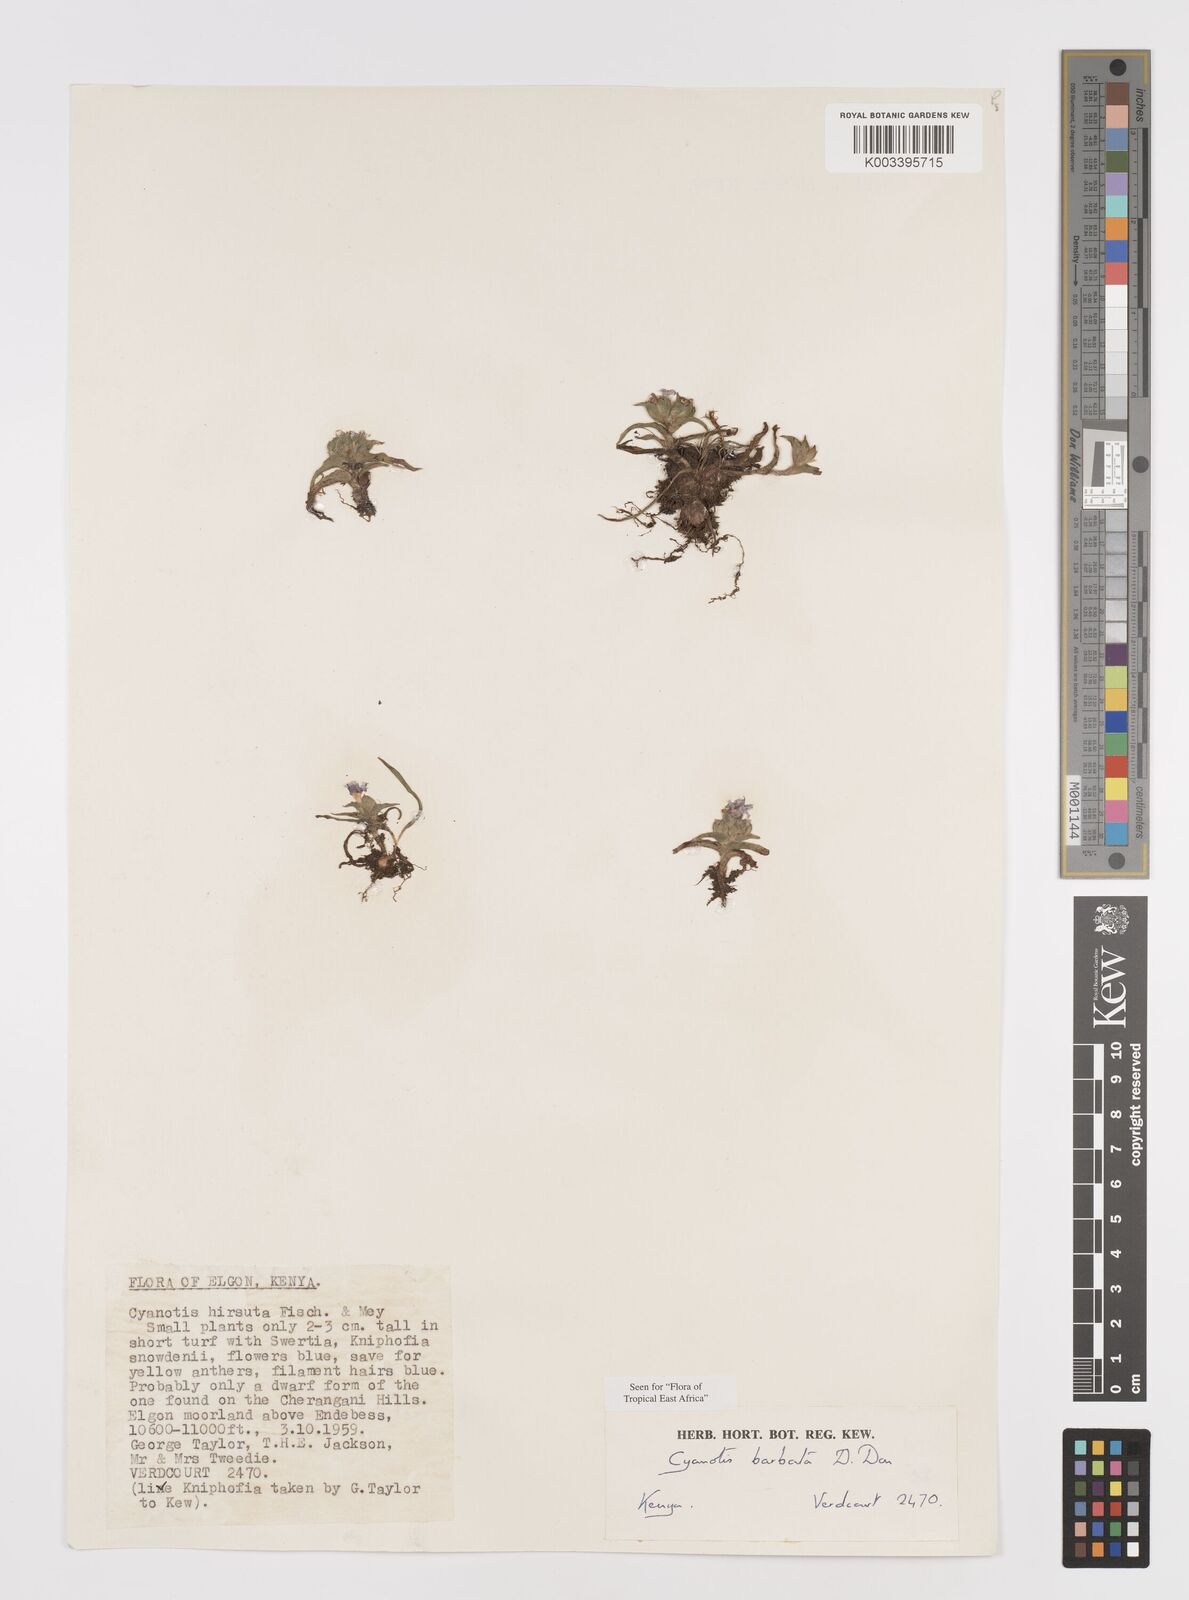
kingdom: Plantae
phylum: Tracheophyta
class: Liliopsida
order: Commelinales
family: Commelinaceae
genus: Cyanotis
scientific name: Cyanotis vaga
